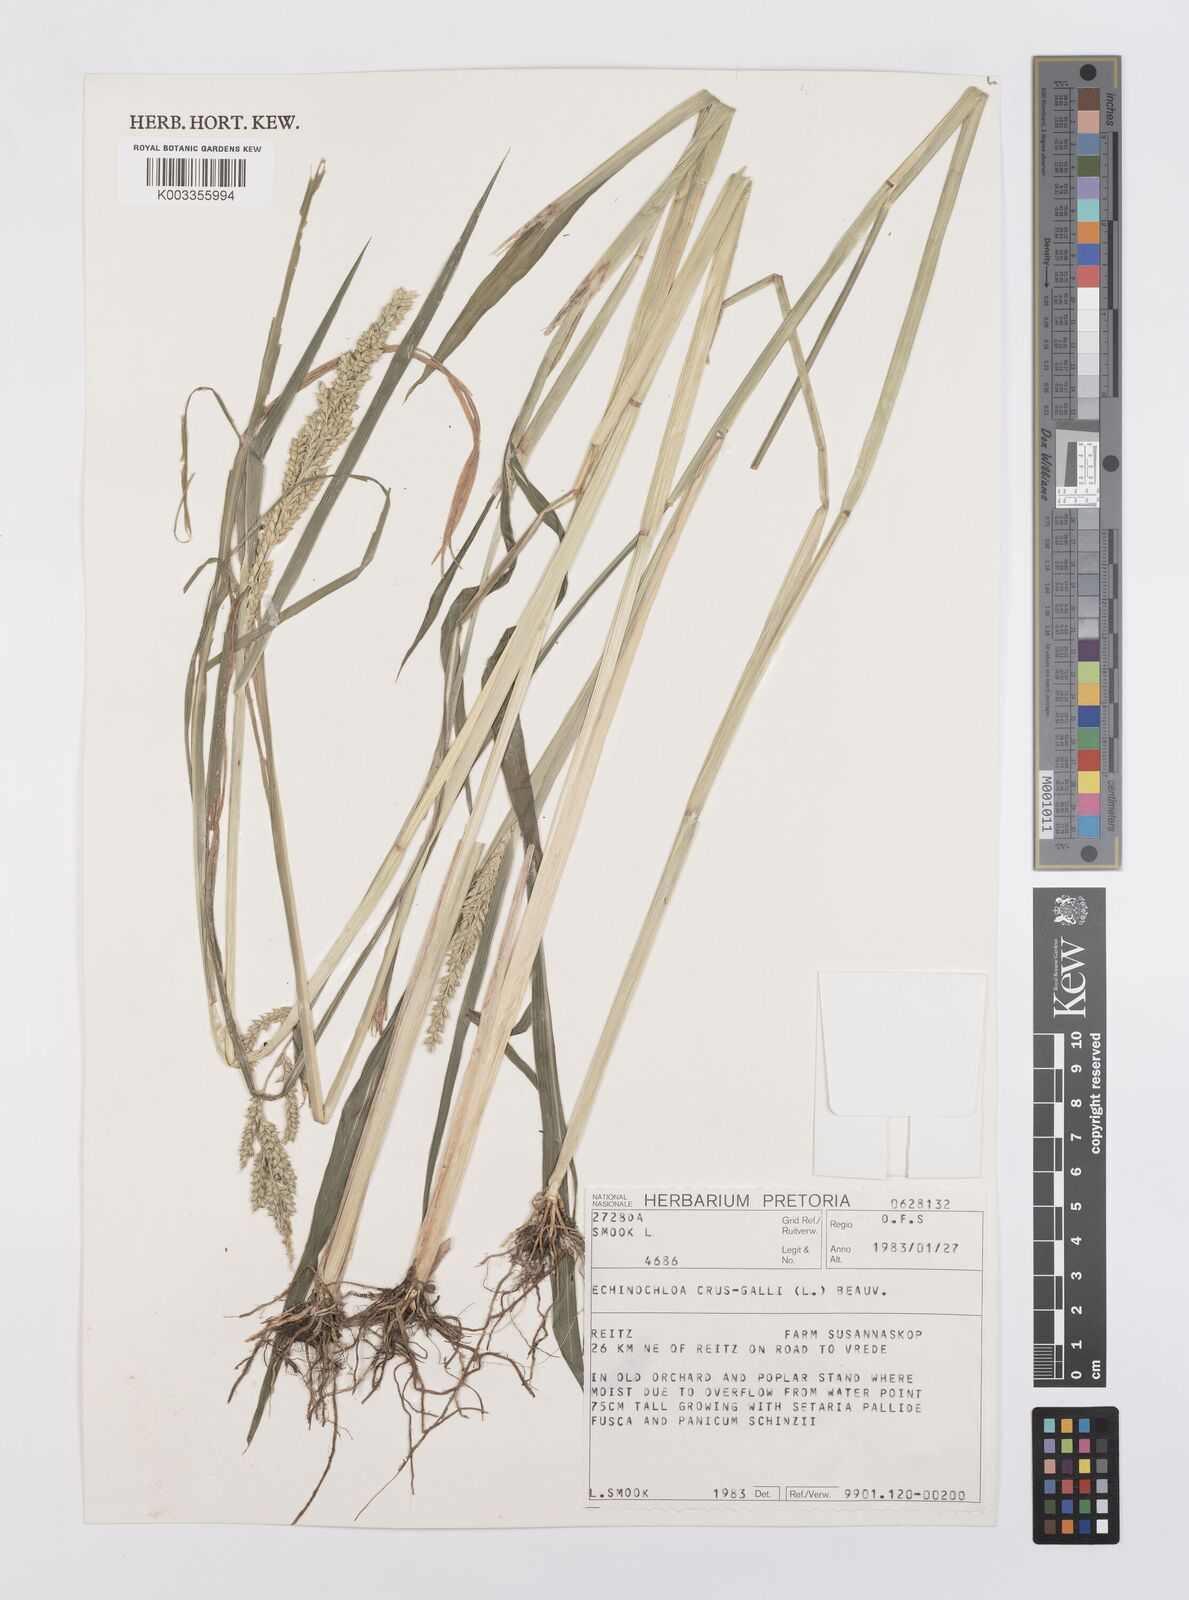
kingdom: Plantae
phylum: Tracheophyta
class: Liliopsida
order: Poales
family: Poaceae
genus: Echinochloa
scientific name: Echinochloa crus-galli
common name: Cockspur
